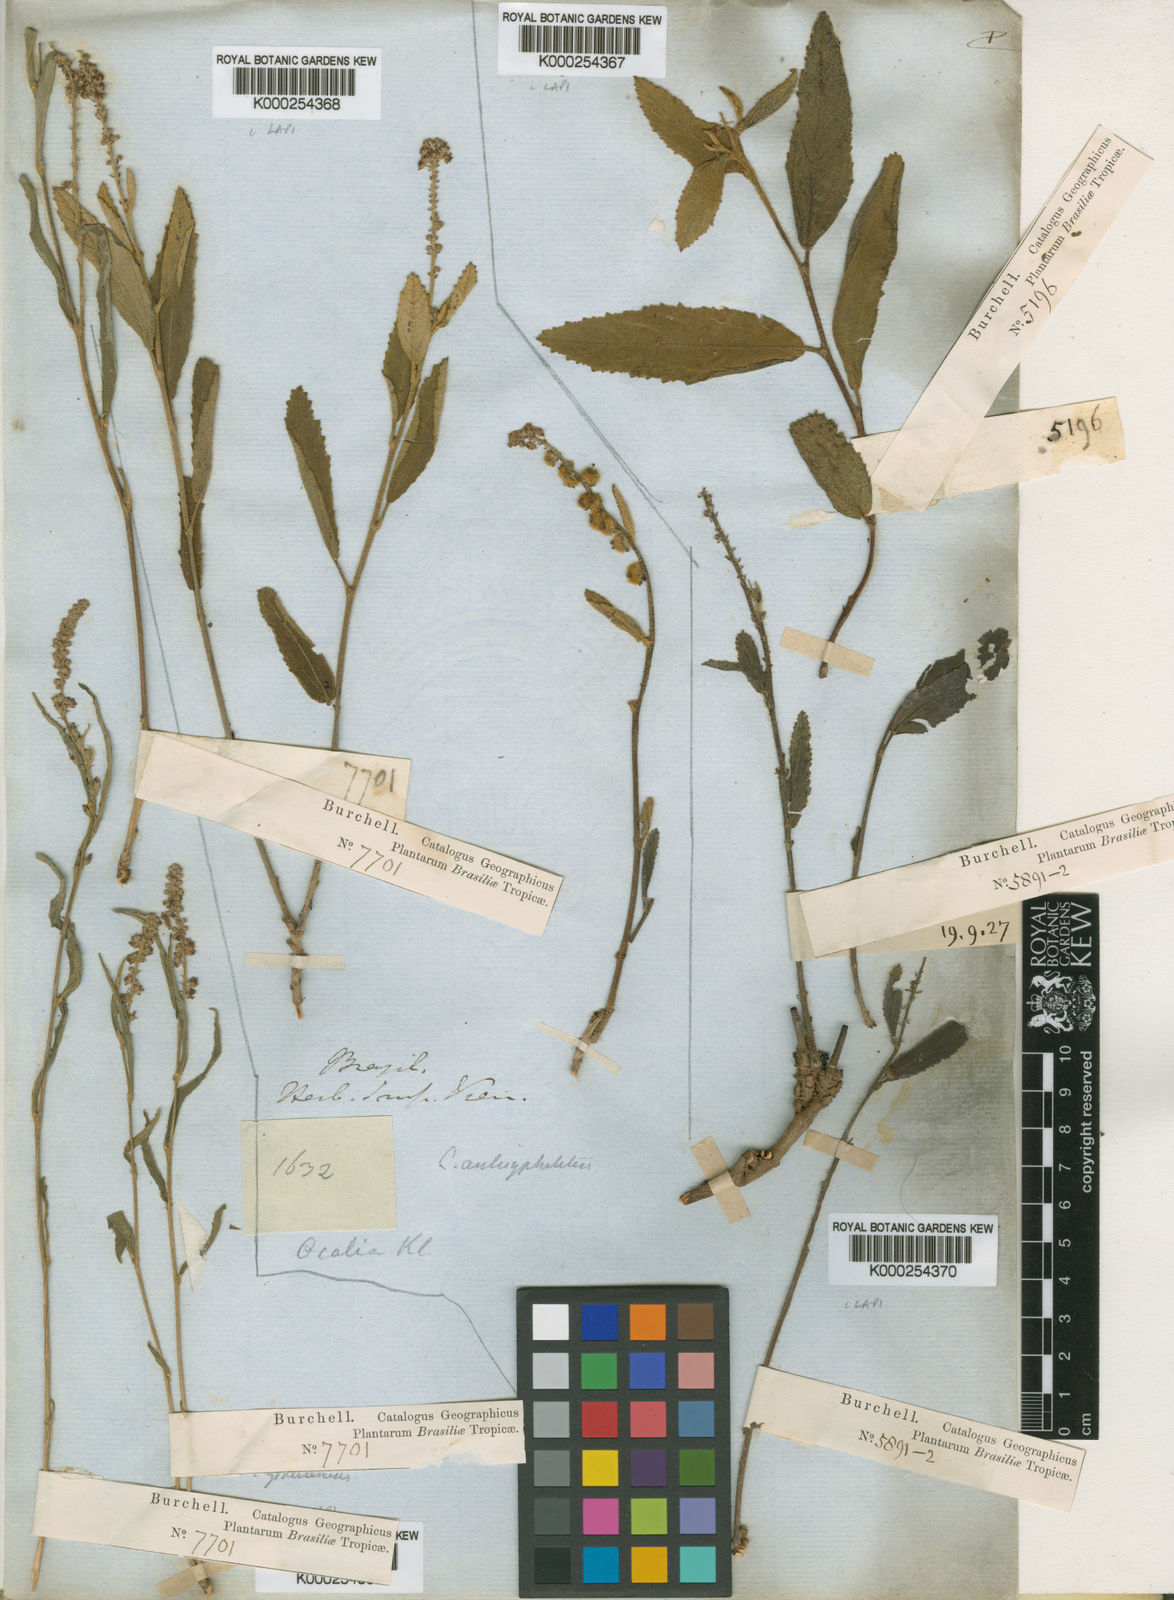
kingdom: Plantae
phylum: Tracheophyta
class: Magnoliopsida
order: Malpighiales
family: Euphorbiaceae
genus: Croton
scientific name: Croton
